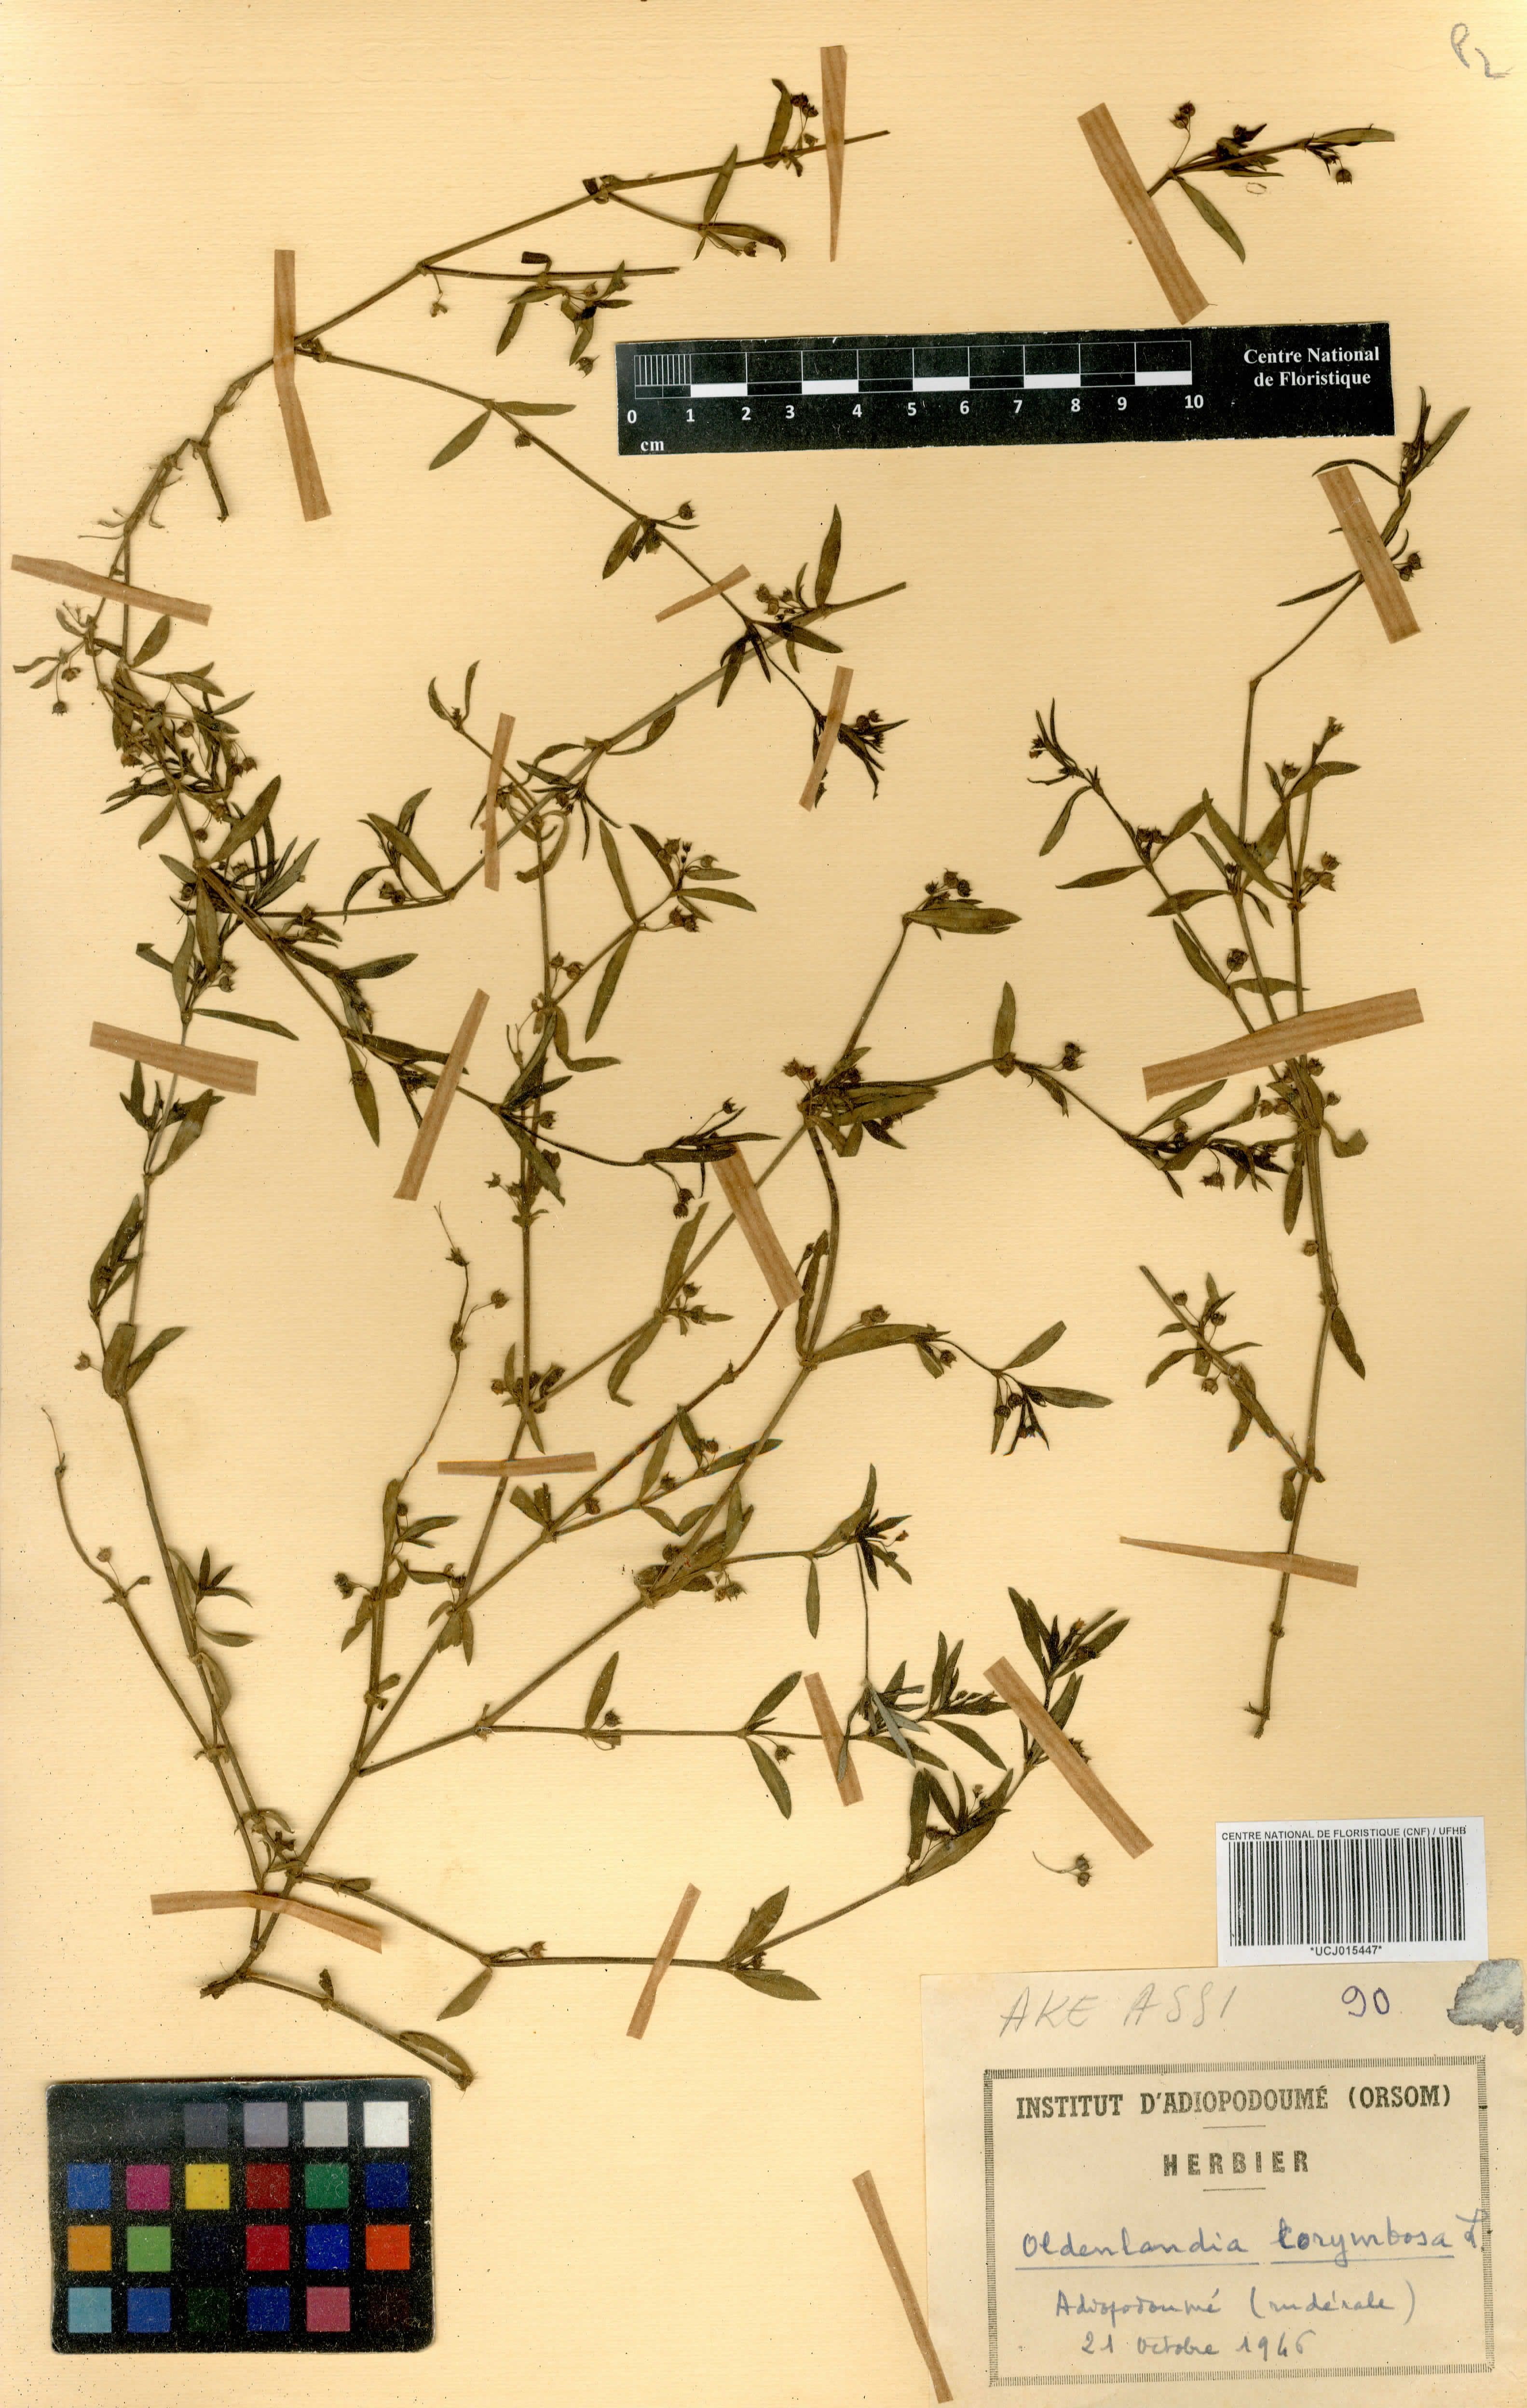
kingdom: Plantae
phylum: Tracheophyta
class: Magnoliopsida
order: Gentianales
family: Rubiaceae
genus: Oldenlandia
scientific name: Oldenlandia corymbosa
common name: Flat-top mille graines
